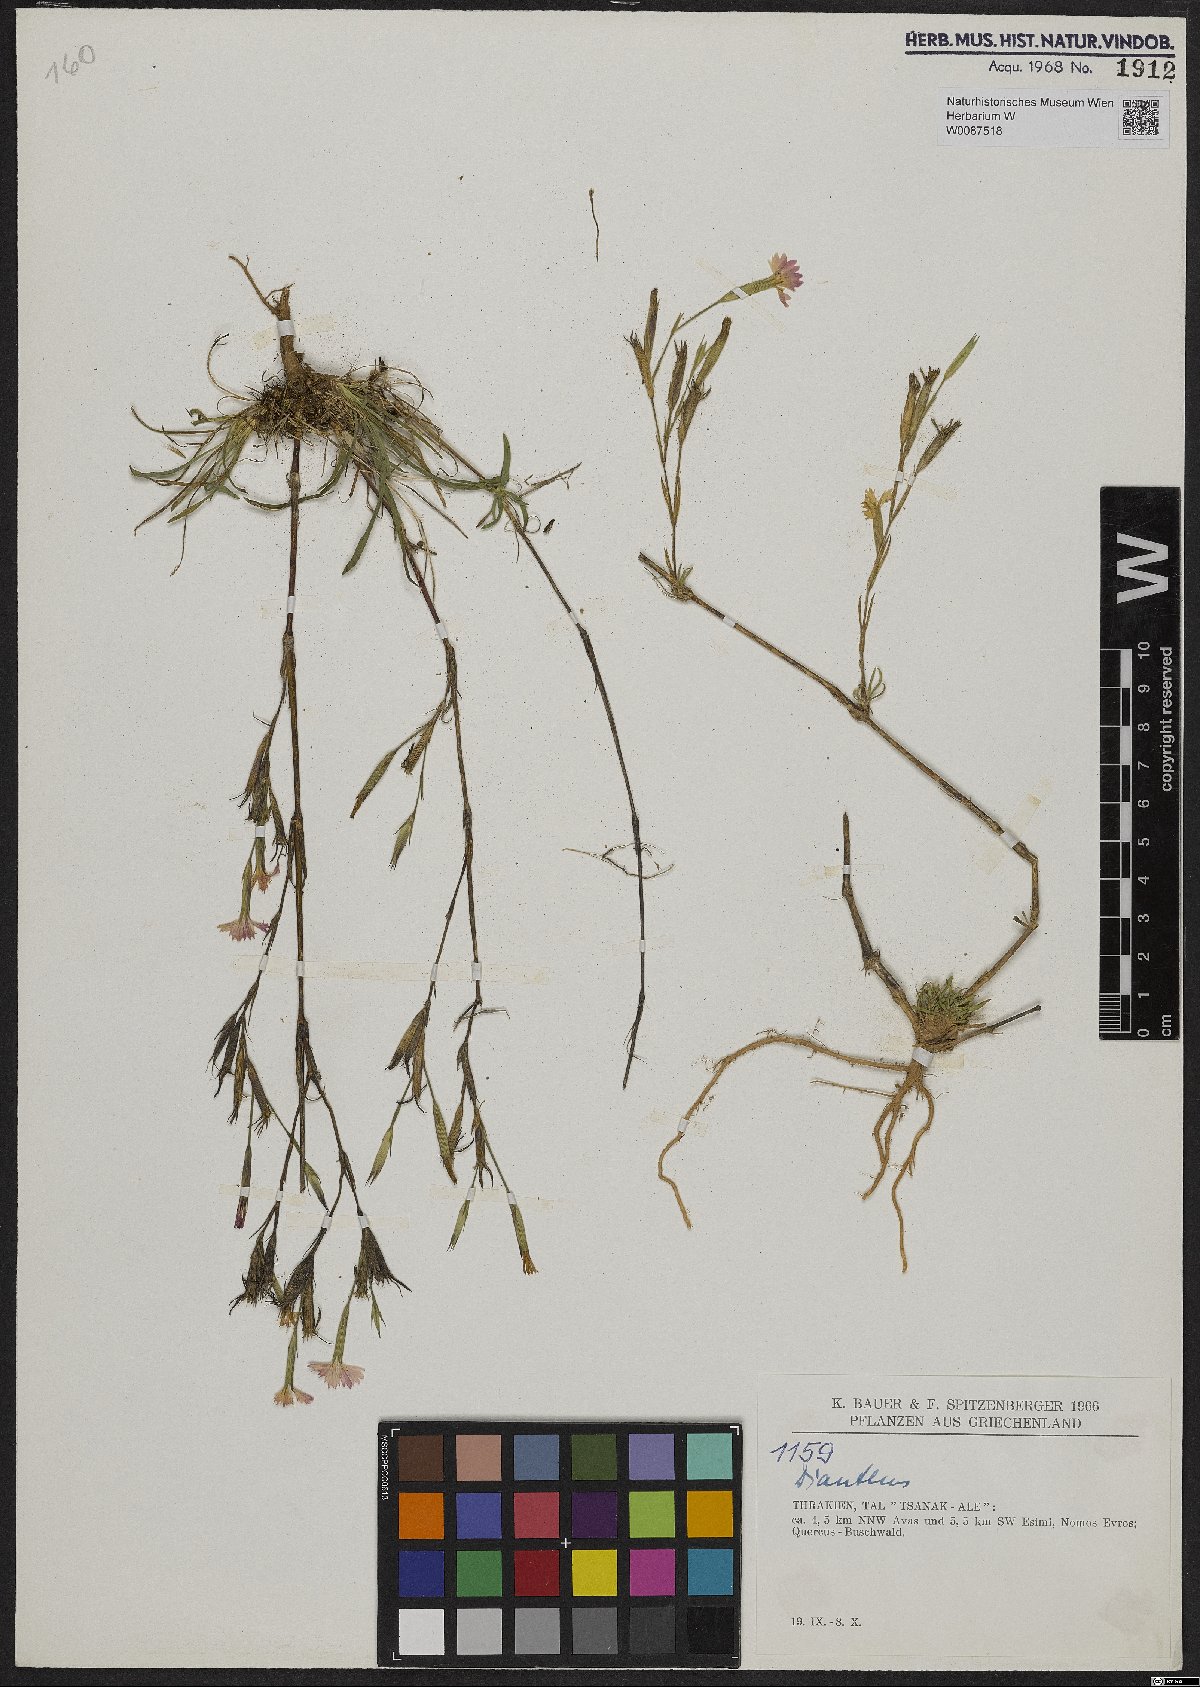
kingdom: Plantae
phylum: Tracheophyta
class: Magnoliopsida
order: Caryophyllales
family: Caryophyllaceae
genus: Dianthus
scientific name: Dianthus
